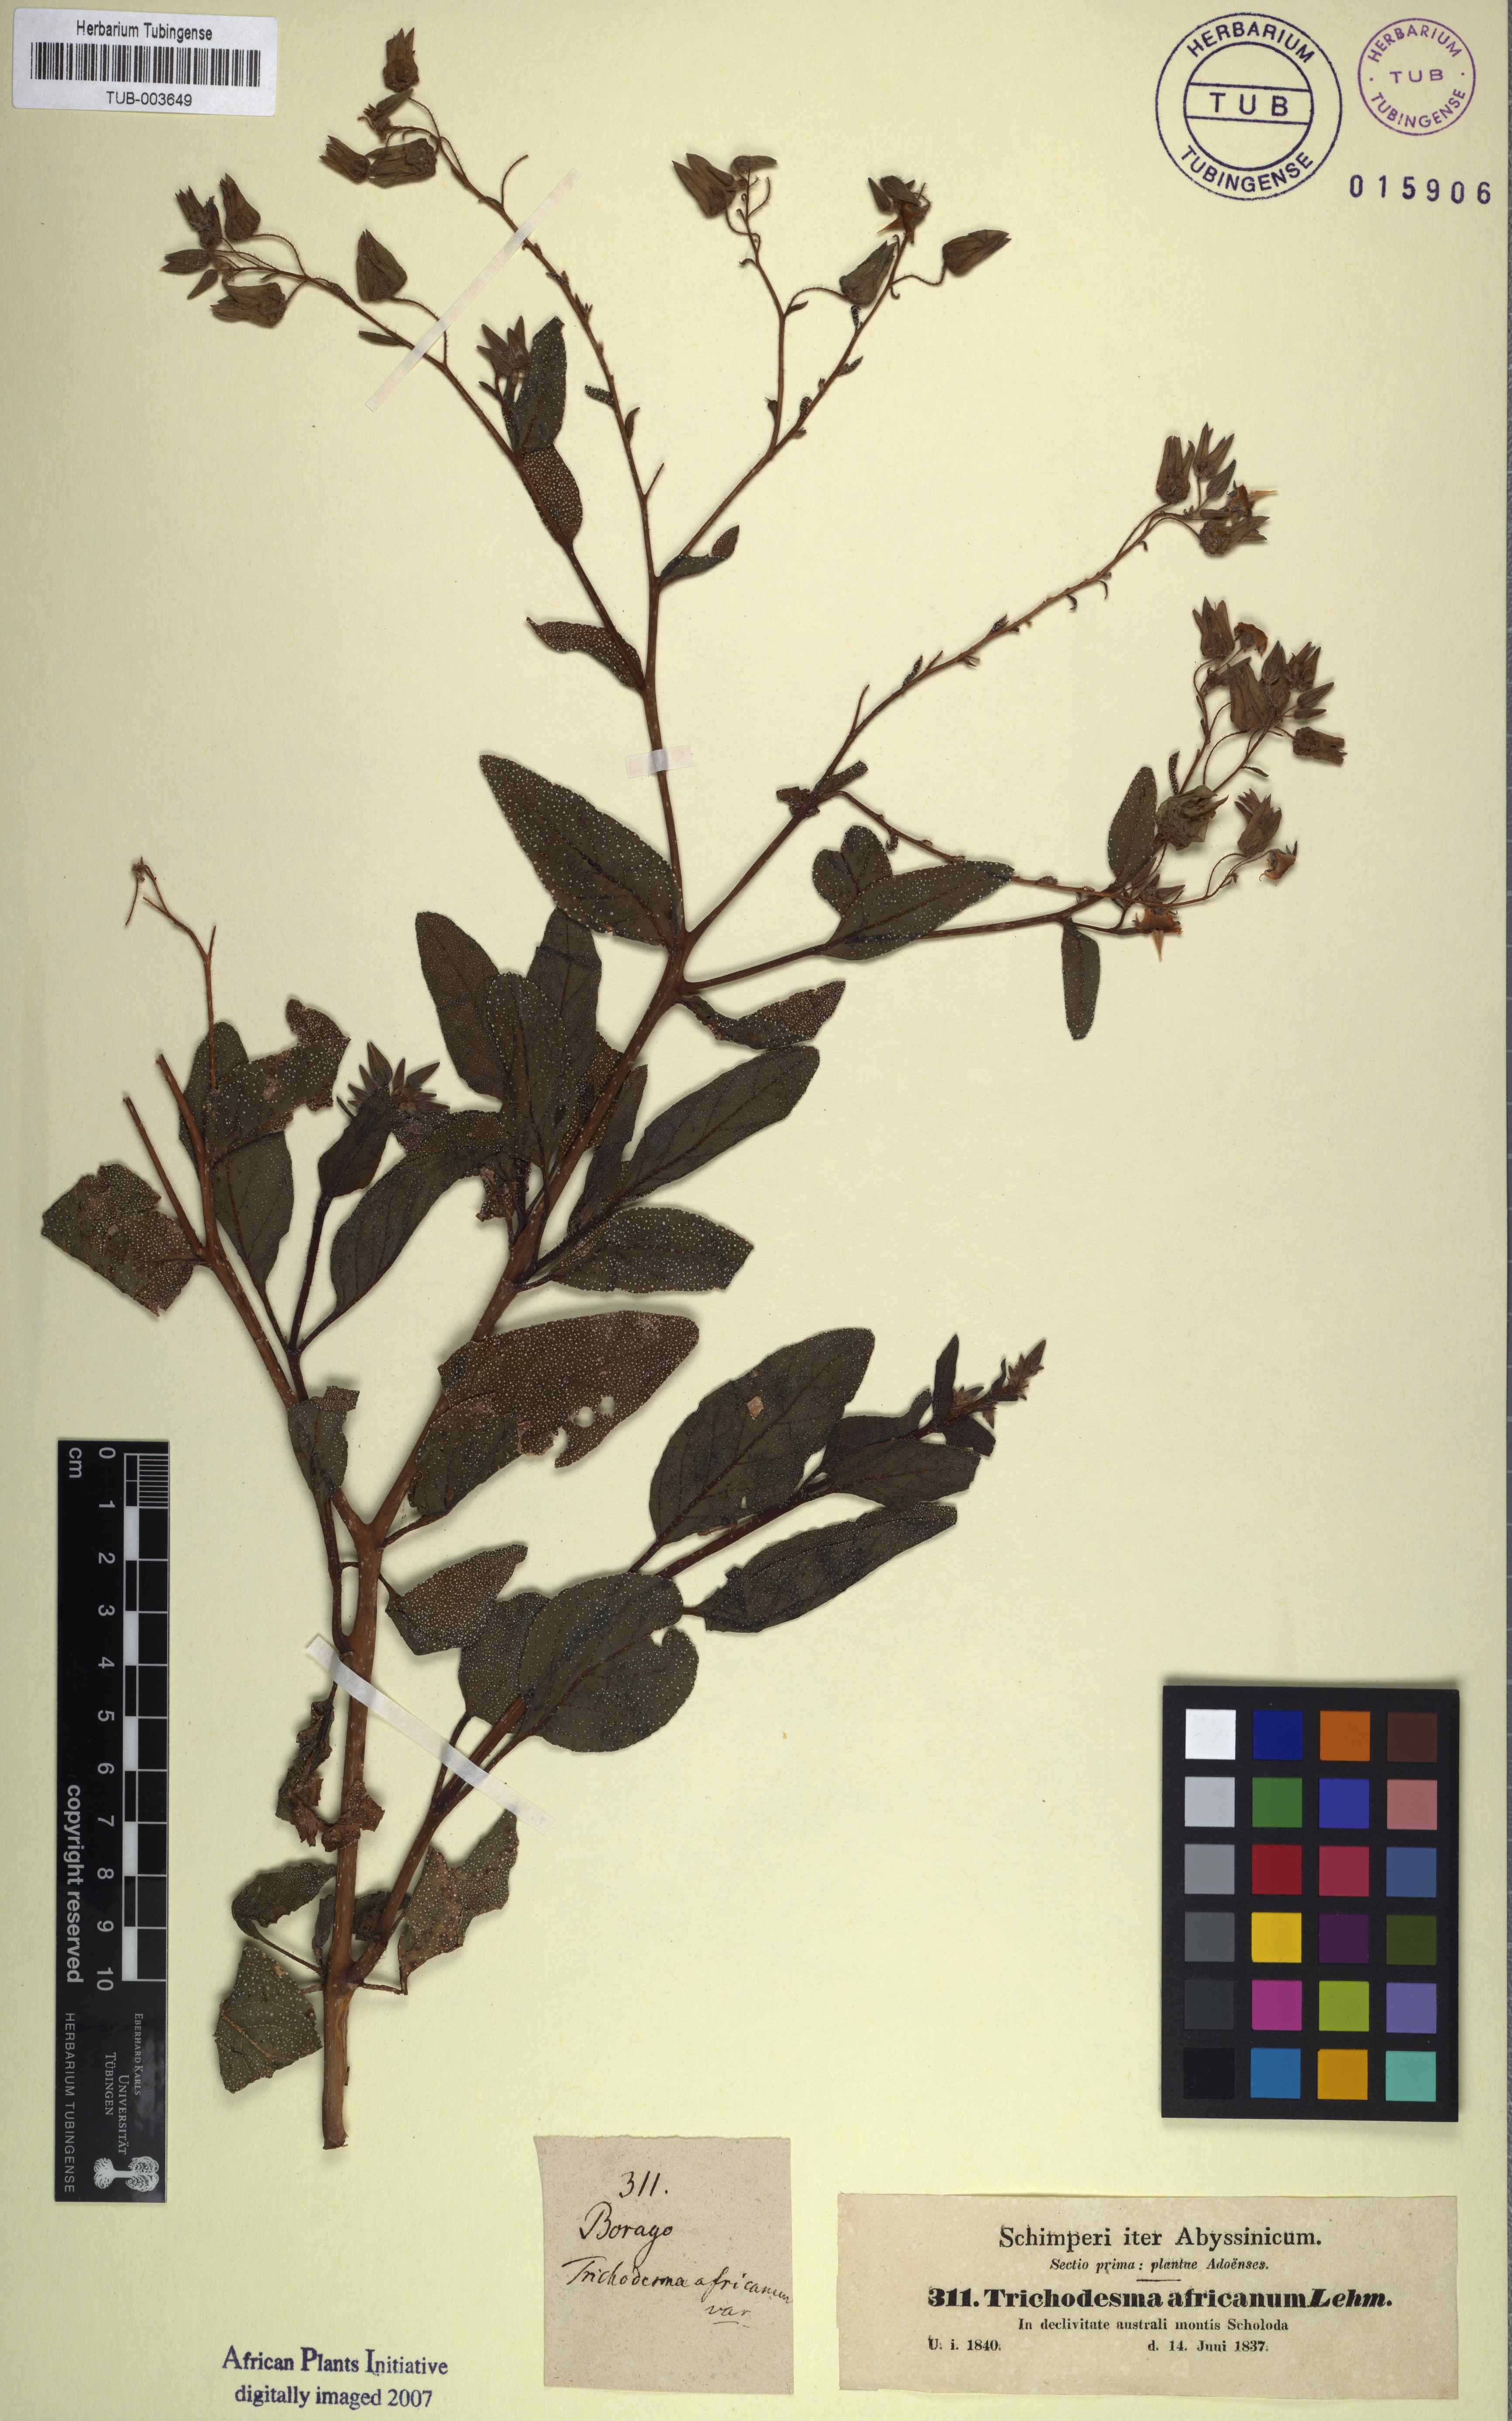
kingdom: Plantae
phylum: Tracheophyta
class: Magnoliopsida
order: Boraginales
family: Boraginaceae
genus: Trichodesma
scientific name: Trichodesma africanum
